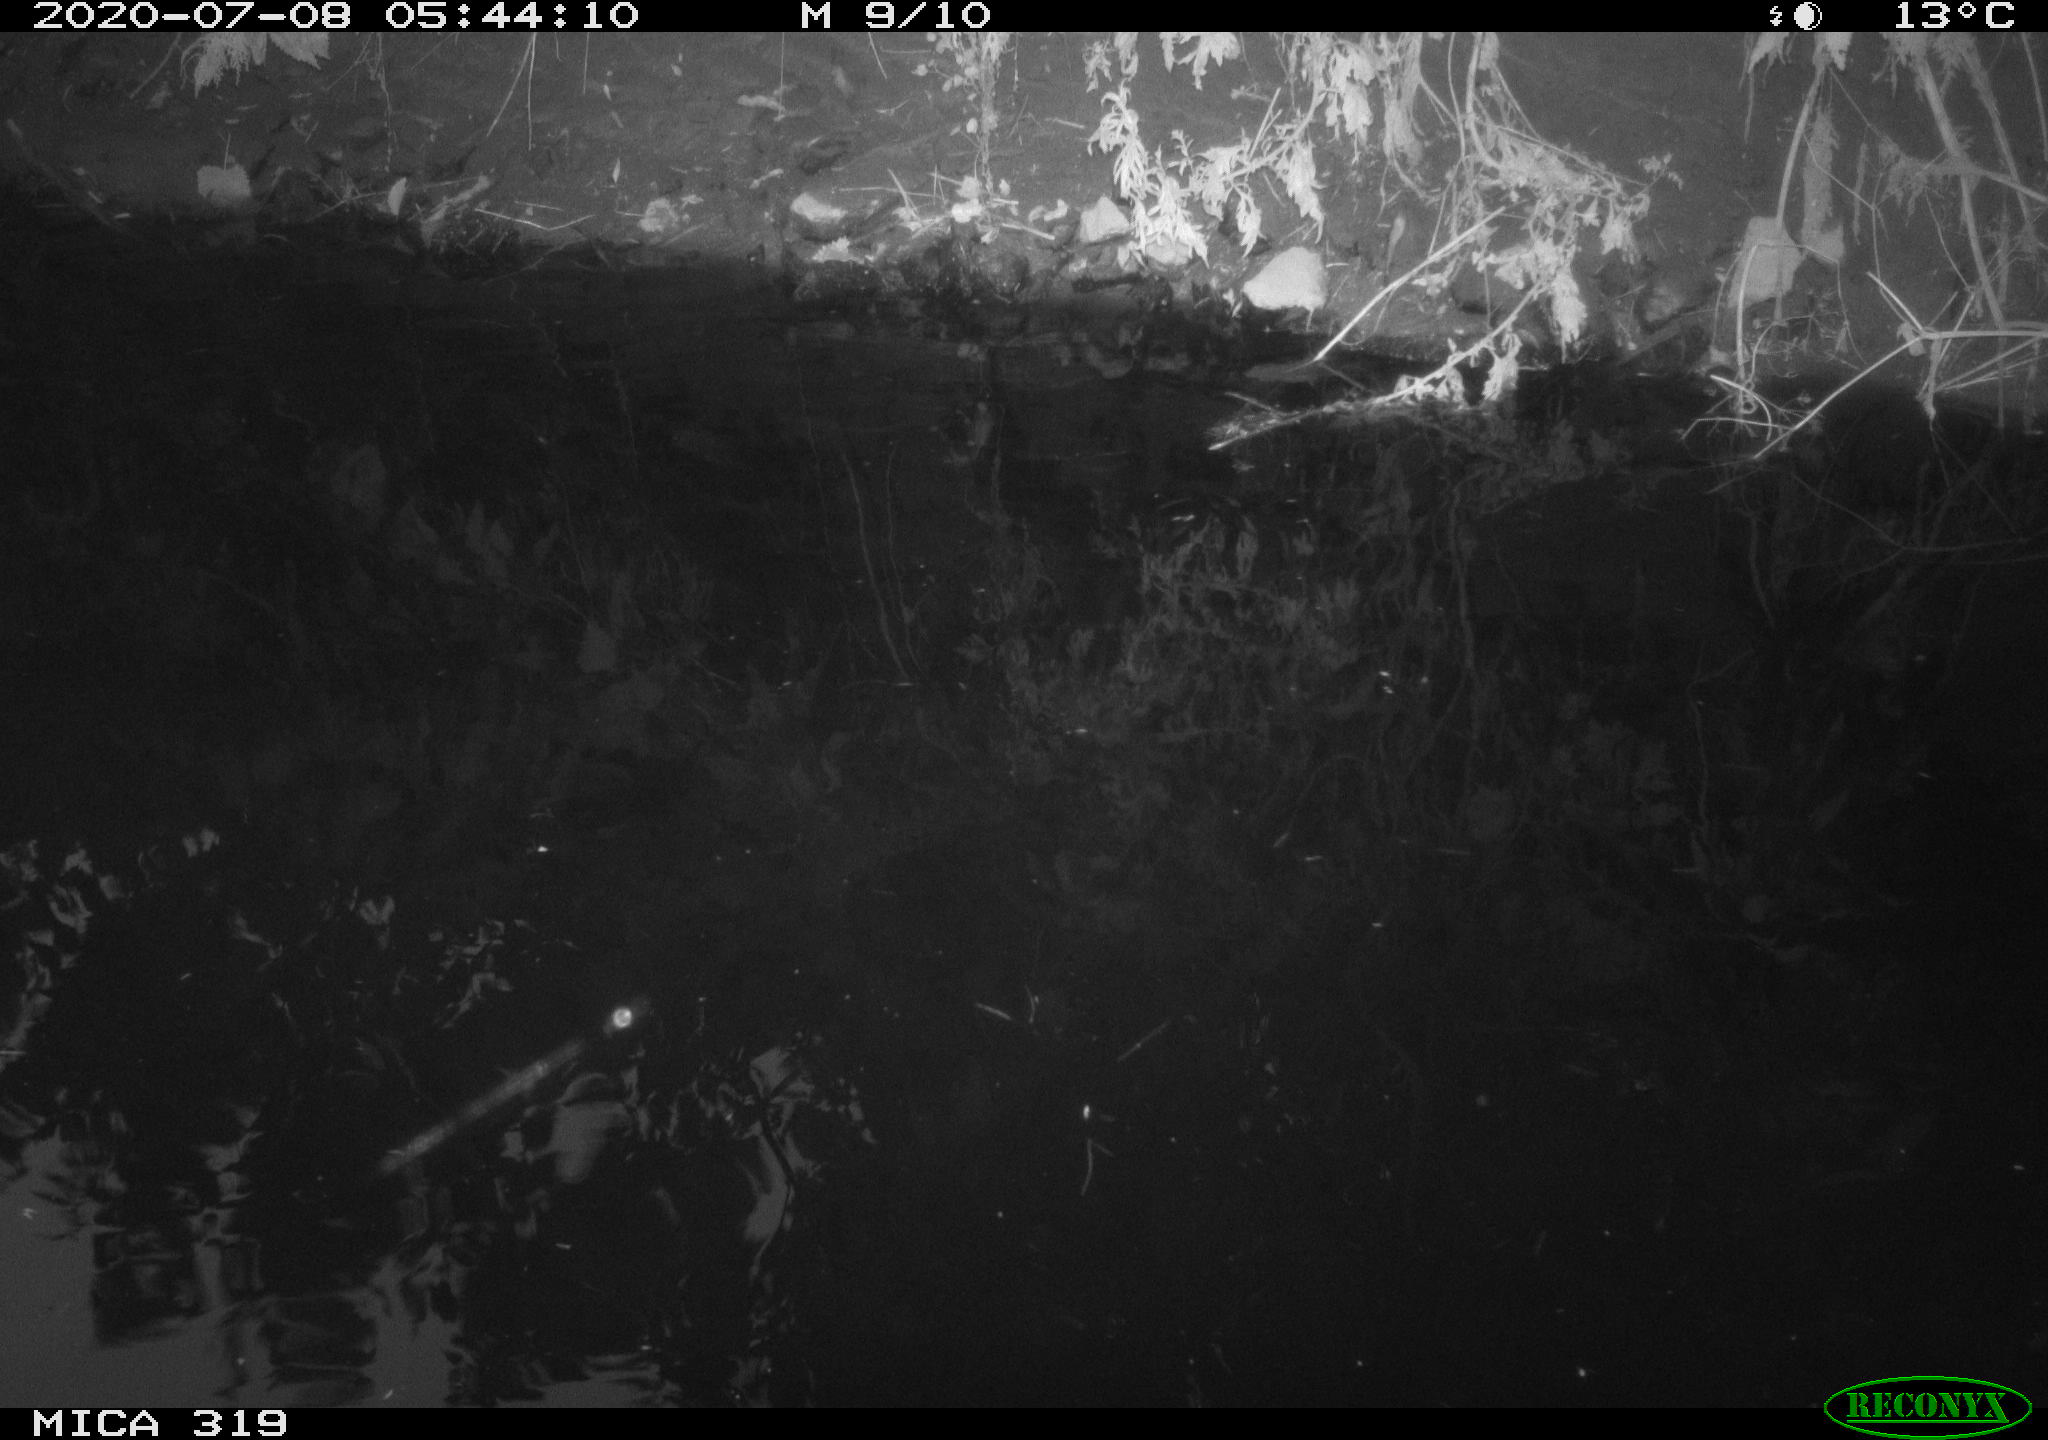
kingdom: Animalia
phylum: Chordata
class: Aves
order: Anseriformes
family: Anatidae
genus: Anas
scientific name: Anas platyrhynchos
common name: Mallard
